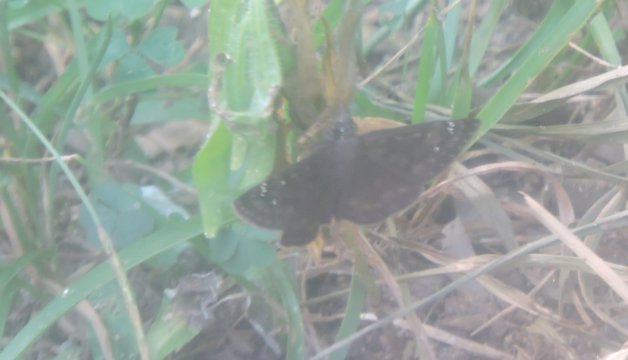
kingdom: Animalia
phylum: Arthropoda
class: Insecta
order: Lepidoptera
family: Hesperiidae
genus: Gesta
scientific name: Gesta
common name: Horace's Duskywing
